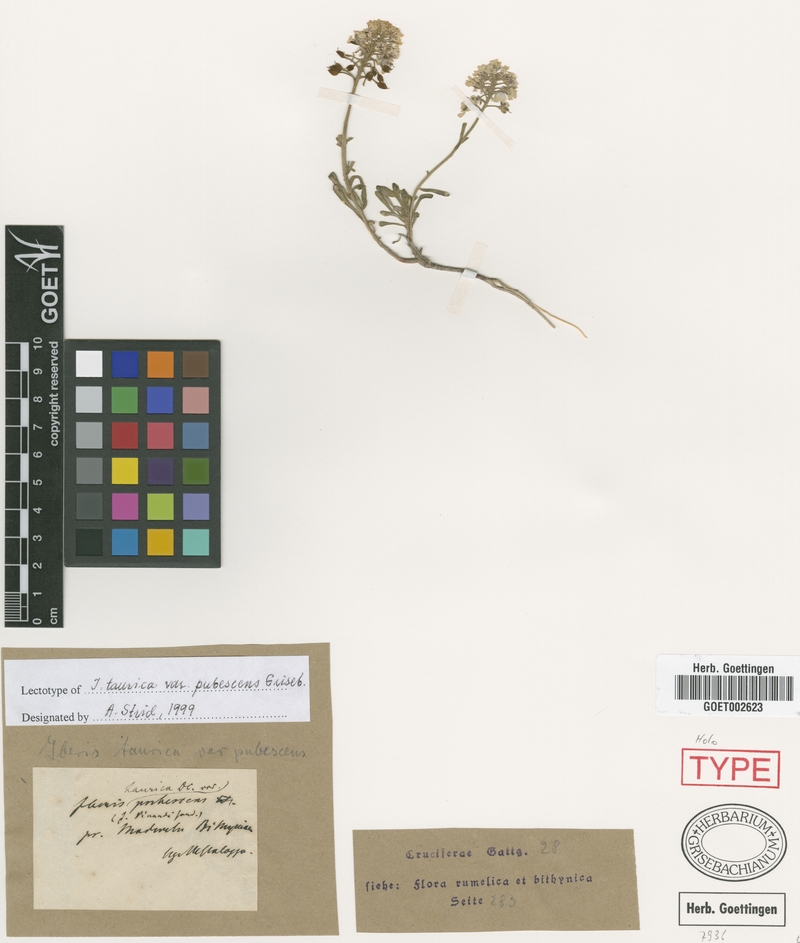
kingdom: Plantae
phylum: Tracheophyta
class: Magnoliopsida
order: Brassicales
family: Brassicaceae
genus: Iberis
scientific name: Iberis simplex
